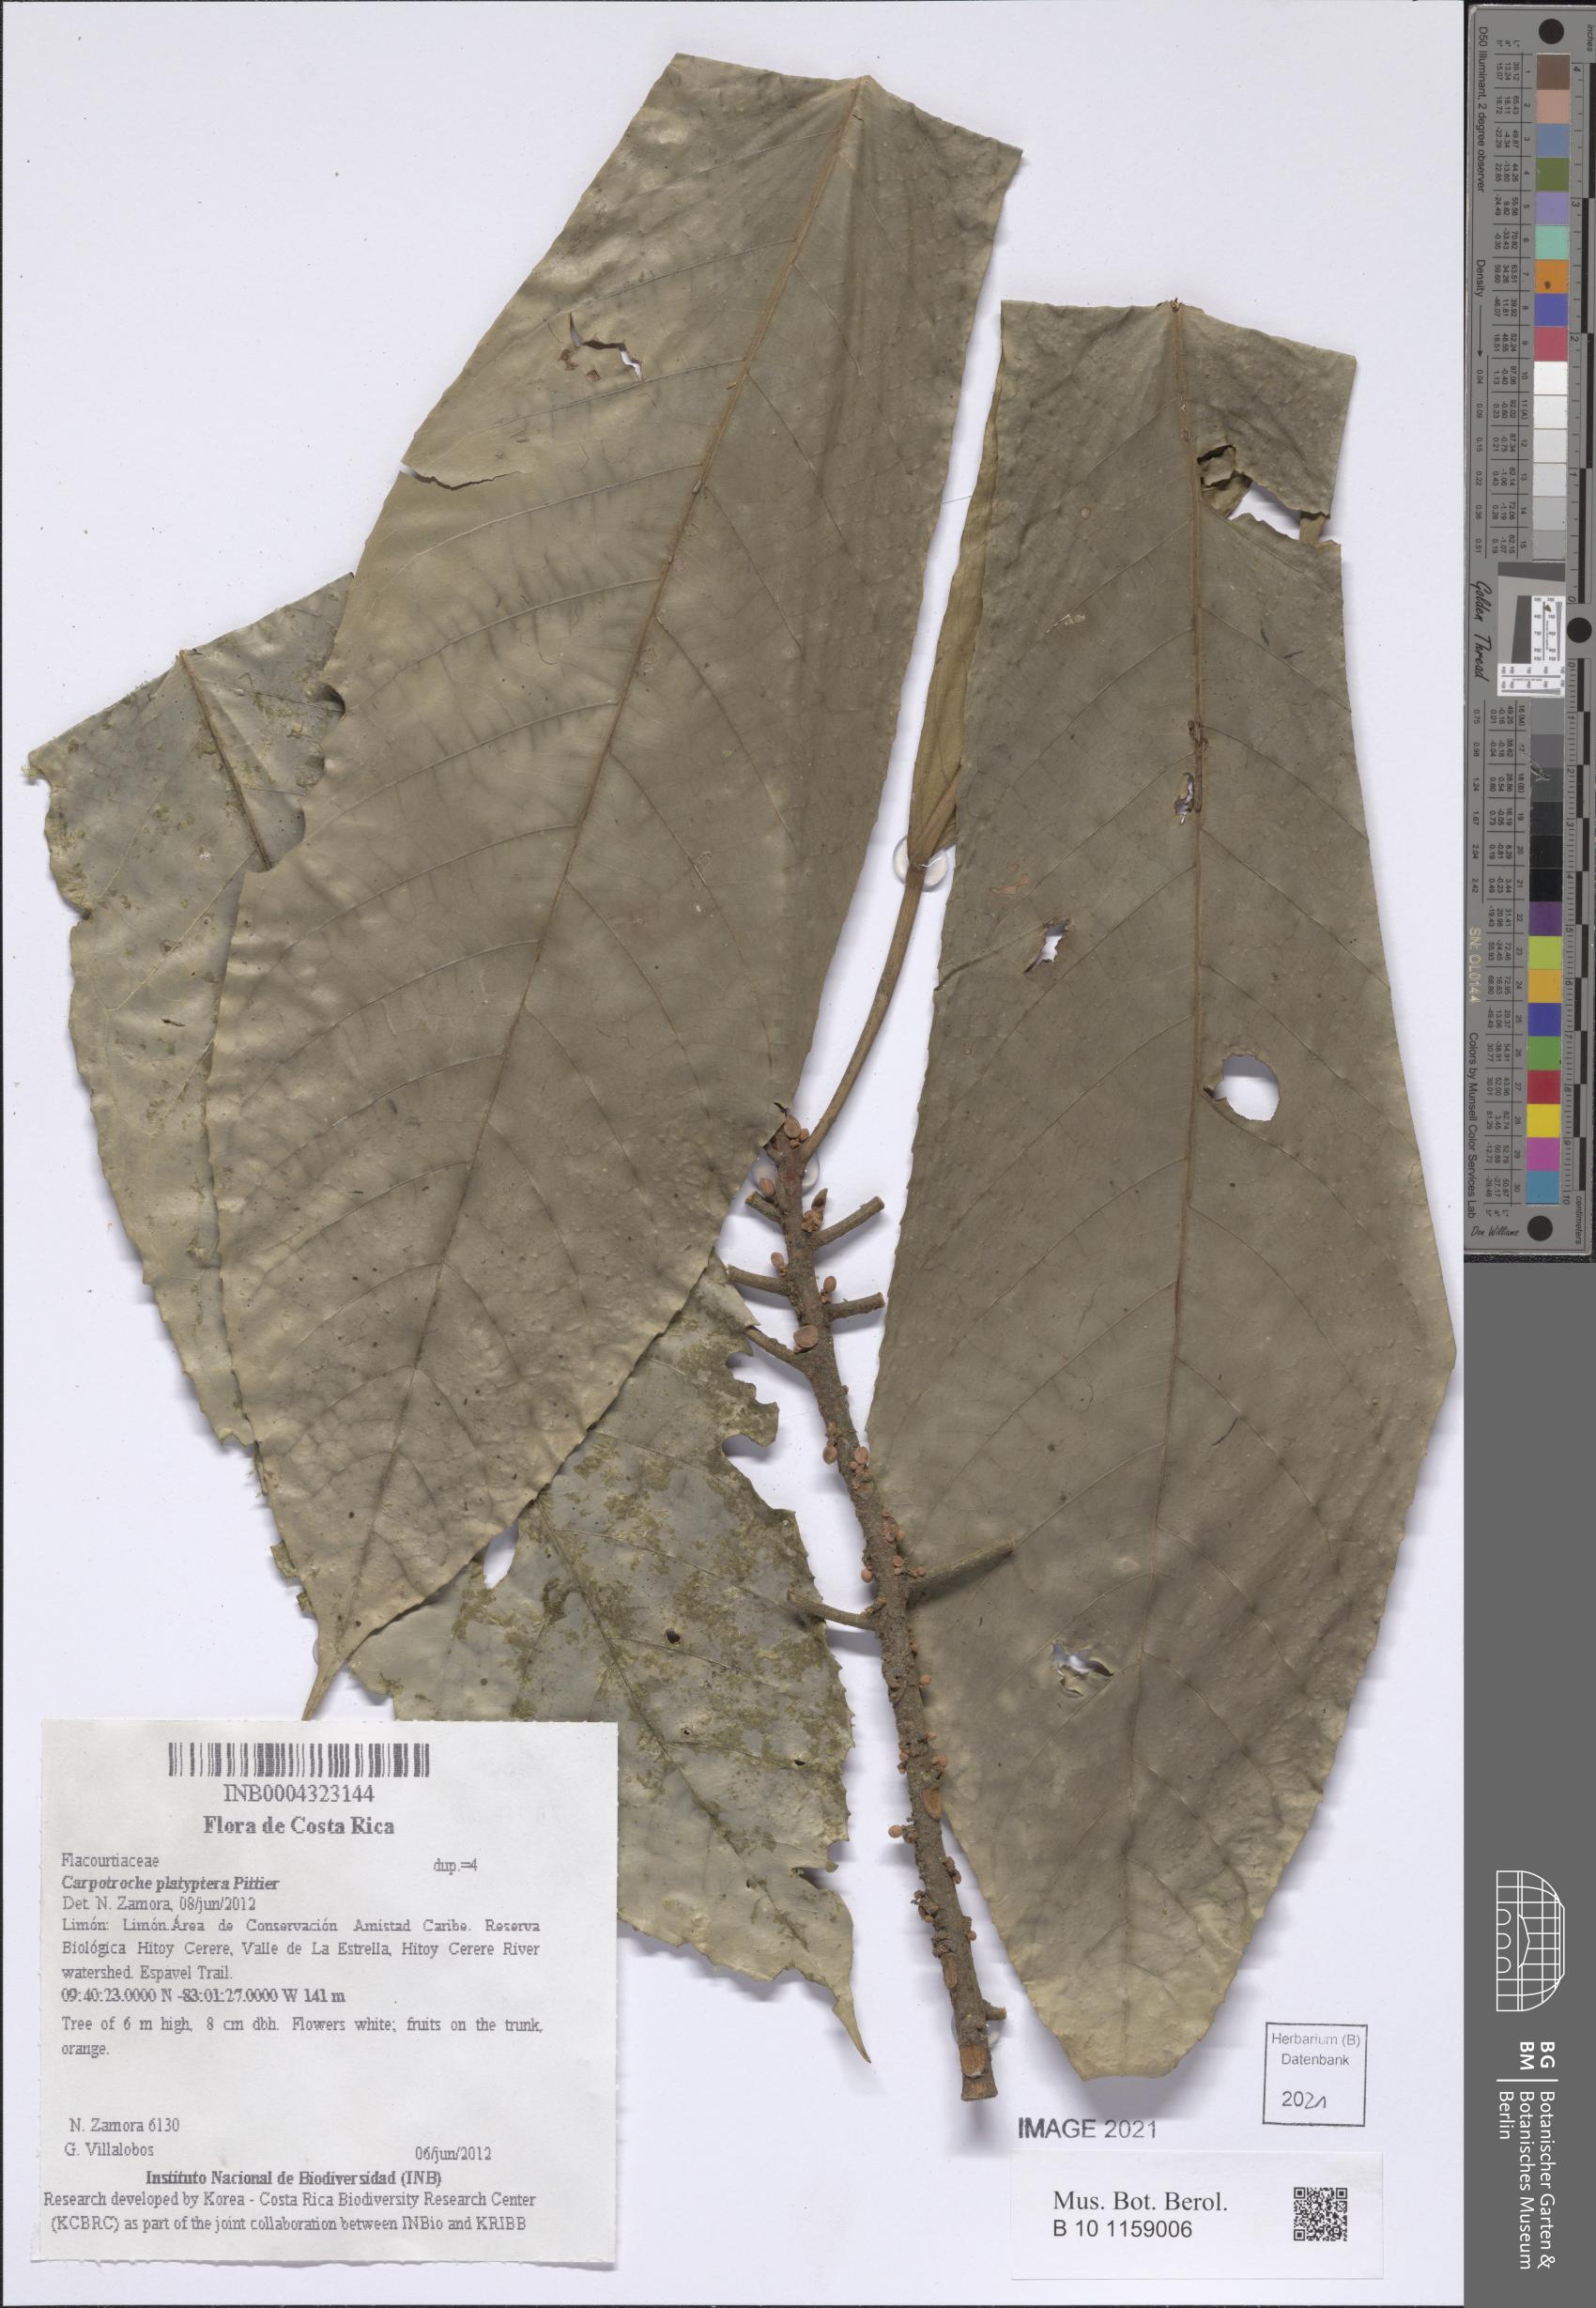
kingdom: Plantae
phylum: Tracheophyta
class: Magnoliopsida
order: Malpighiales
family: Achariaceae
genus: Carpotroche
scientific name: Carpotroche platyptera
